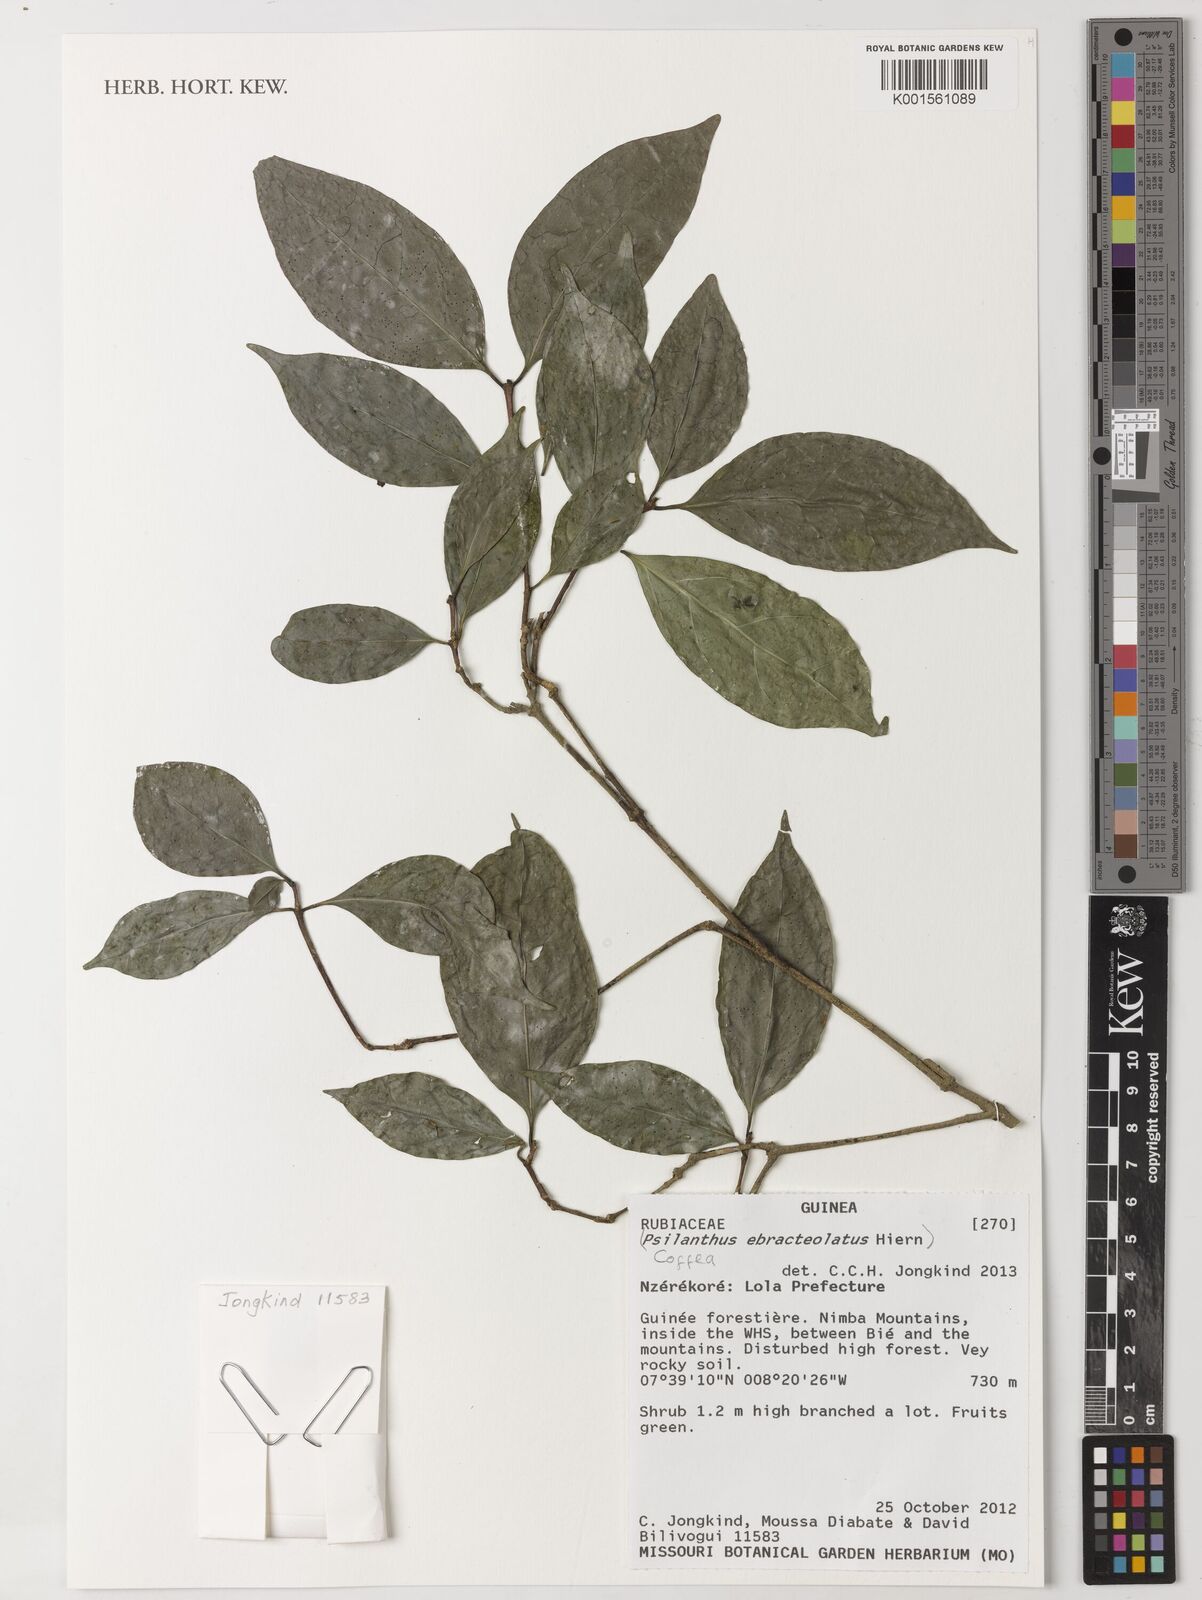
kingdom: Plantae
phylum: Tracheophyta
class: Magnoliopsida
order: Gentianales
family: Rubiaceae
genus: Coffea
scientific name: Coffea
